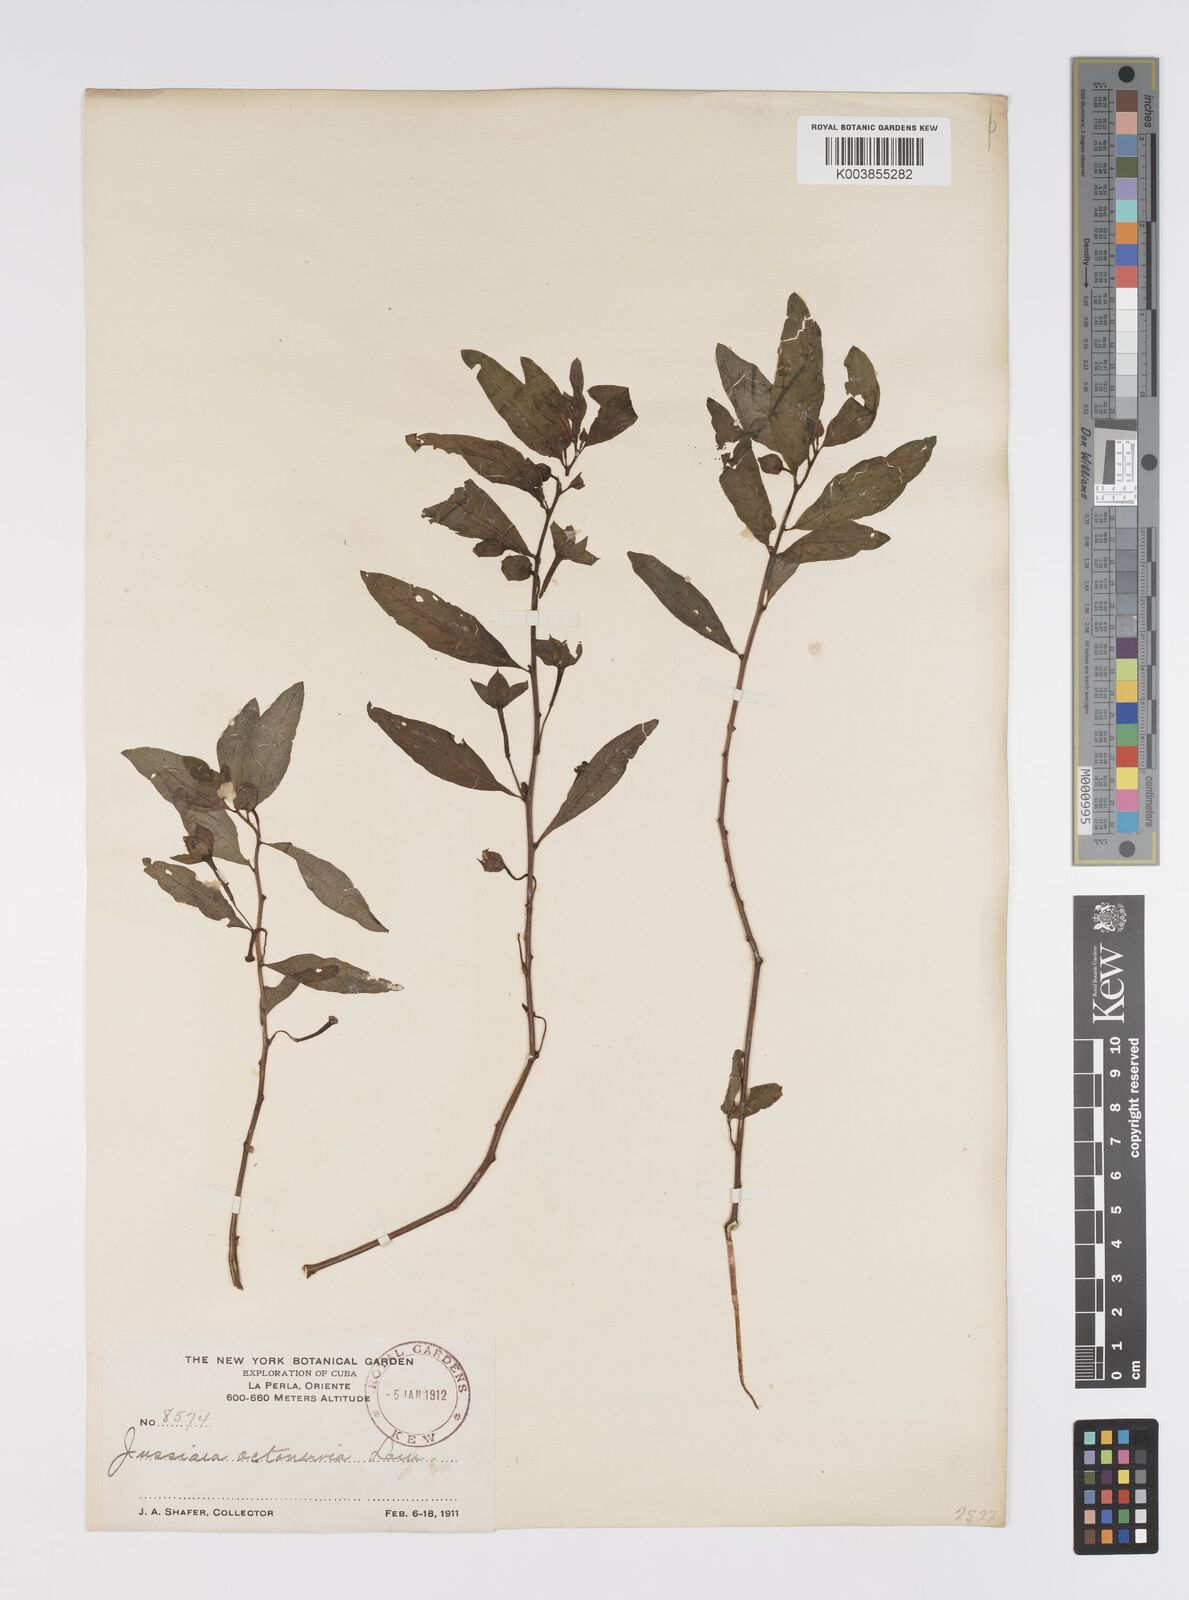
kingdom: Plantae
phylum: Tracheophyta
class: Magnoliopsida
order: Myrtales
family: Onagraceae
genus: Ludwigia
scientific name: Ludwigia octovalvis
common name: Water-primrose
